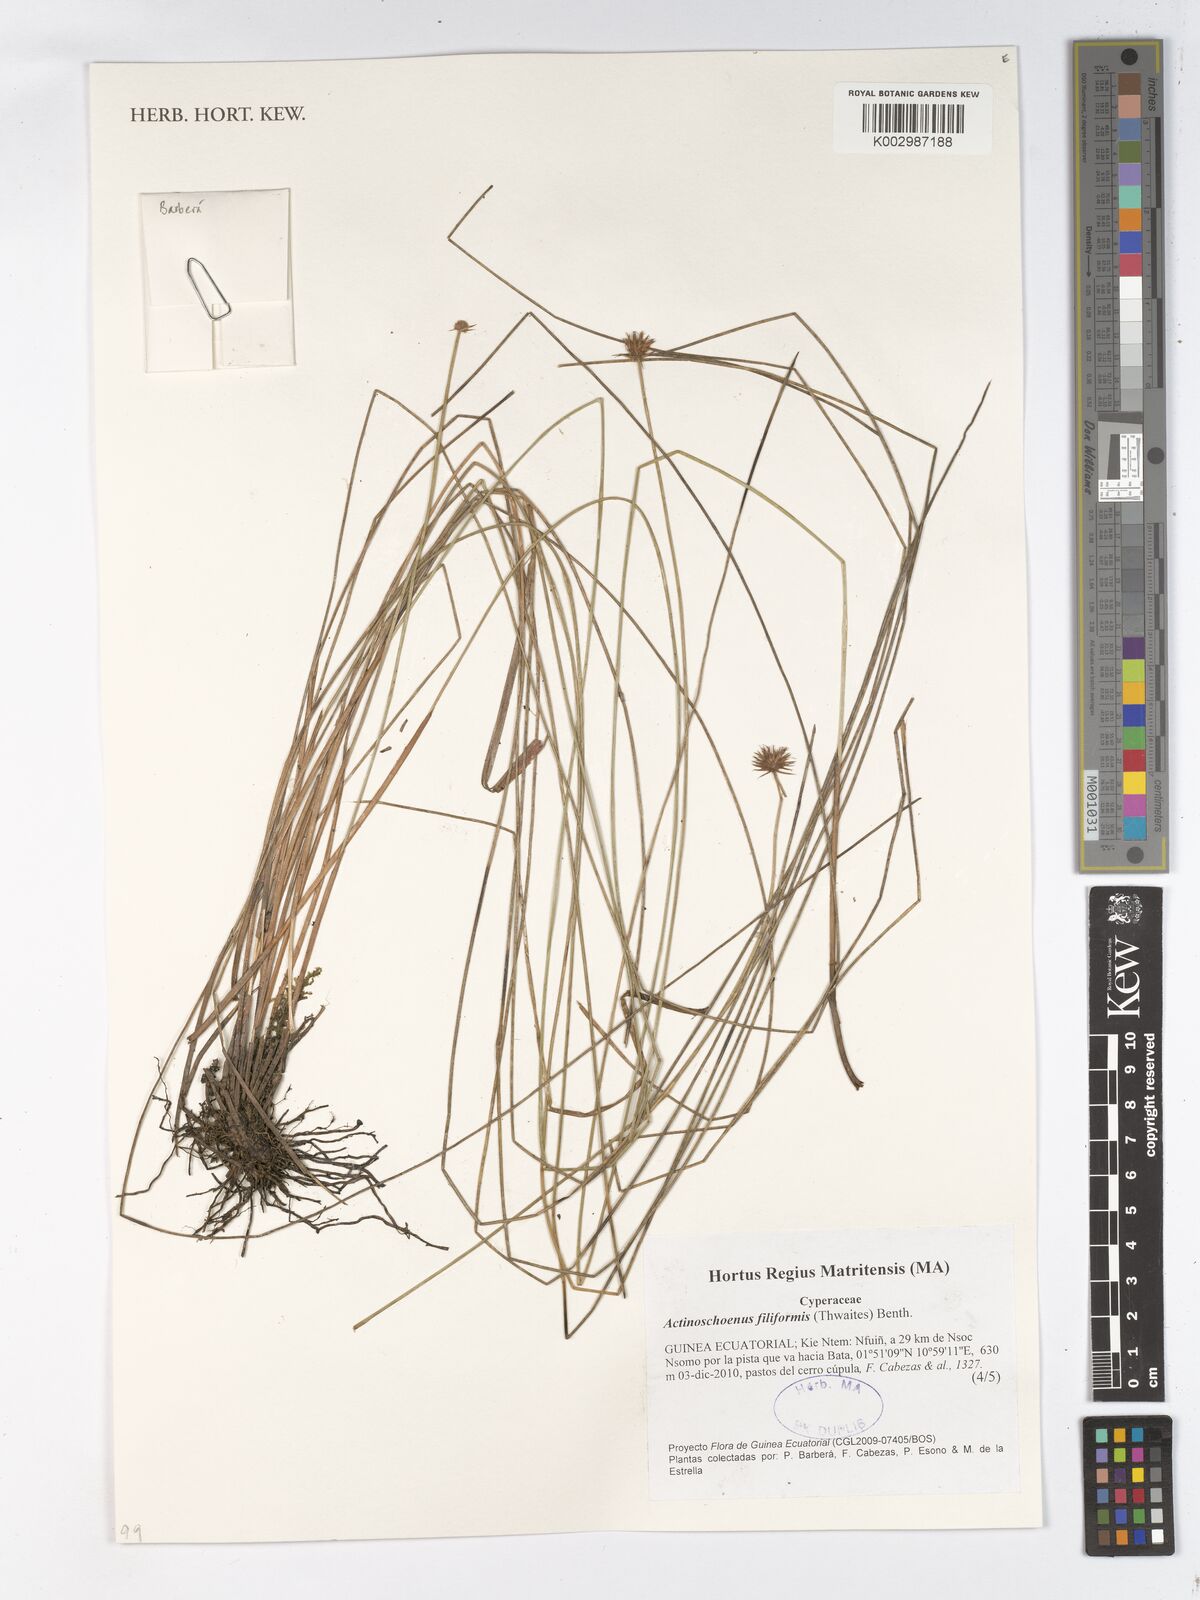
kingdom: Plantae
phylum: Tracheophyta
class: Liliopsida
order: Poales
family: Cyperaceae
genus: Actinoschoenus
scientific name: Actinoschoenus aphyllus
